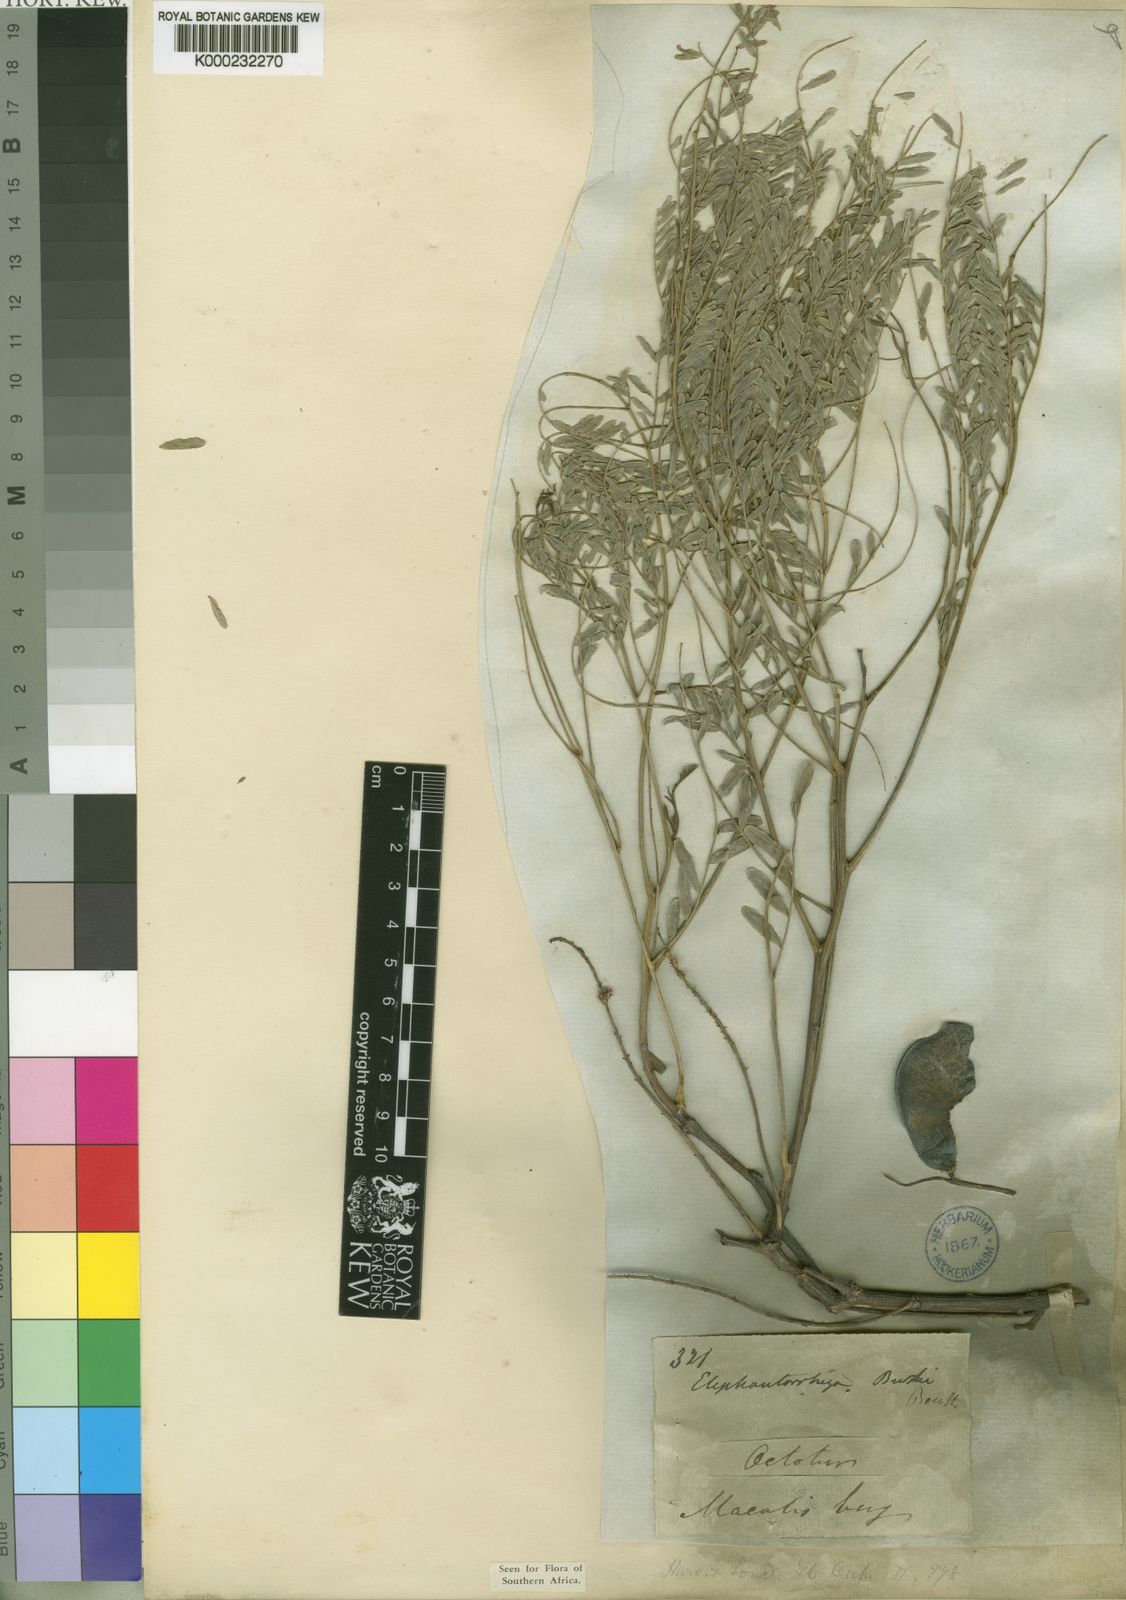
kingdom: Plantae
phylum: Tracheophyta
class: Magnoliopsida
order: Fabales
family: Fabaceae
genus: Elephantorrhiza
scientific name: Elephantorrhiza burkei
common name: Broad-pod elephant-root
